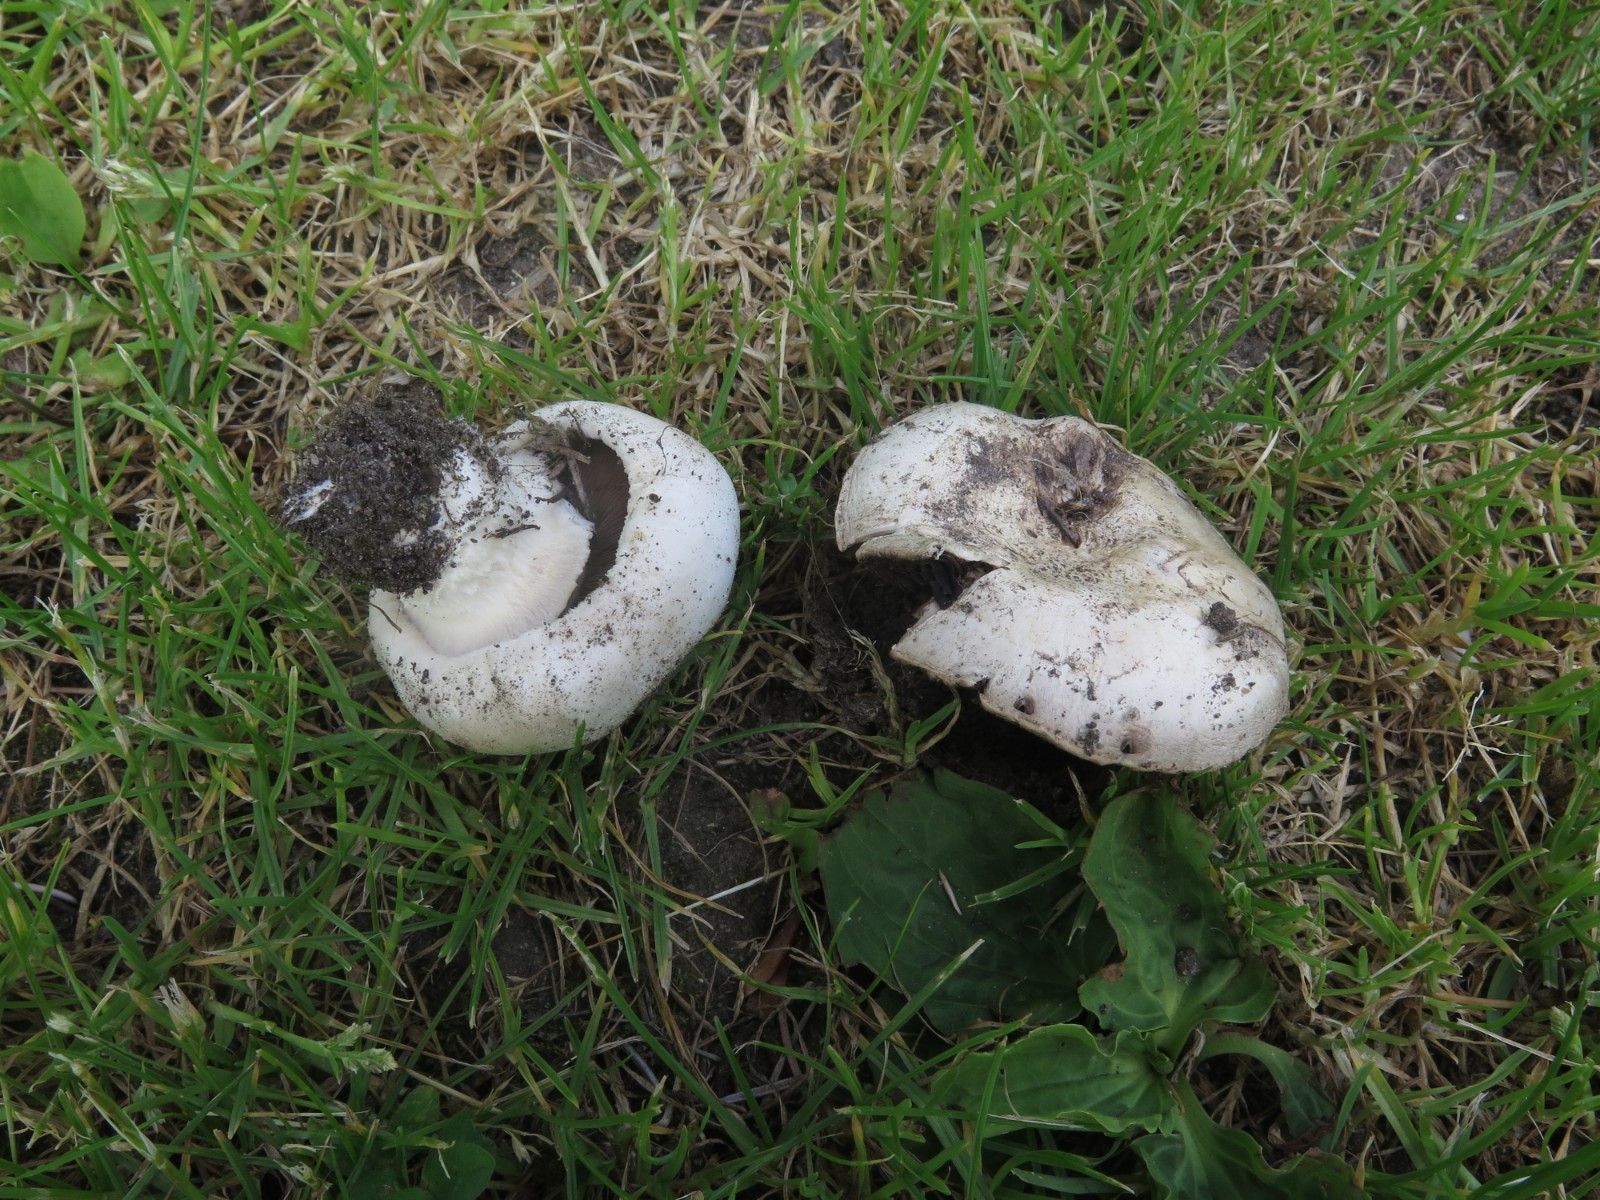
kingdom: Fungi
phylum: Basidiomycota
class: Agaricomycetes
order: Agaricales
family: Agaricaceae
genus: Agaricus
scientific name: Agaricus bitorquis
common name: vej-champignon
